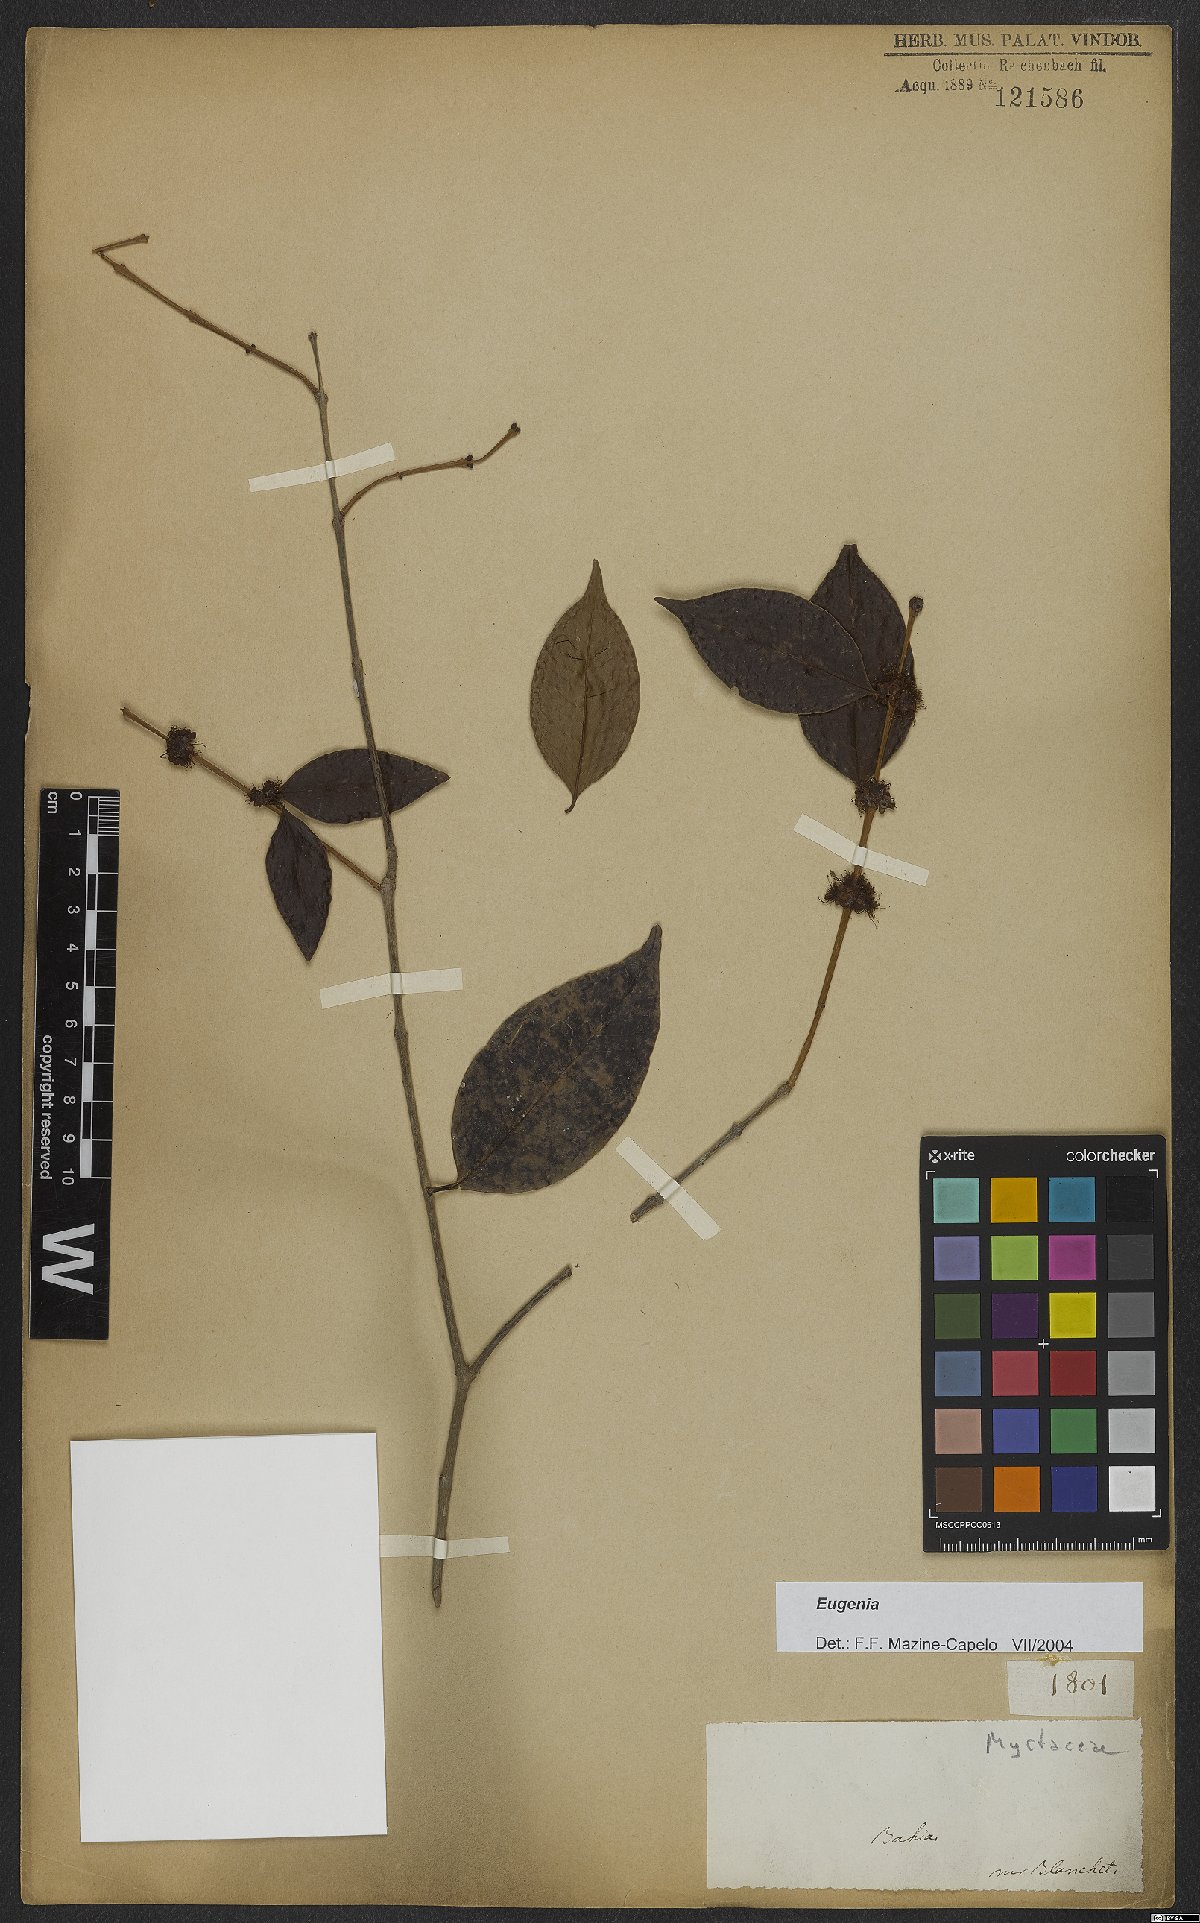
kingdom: Plantae
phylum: Tracheophyta
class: Magnoliopsida
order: Myrtales
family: Myrtaceae
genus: Eugenia
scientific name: Eugenia
